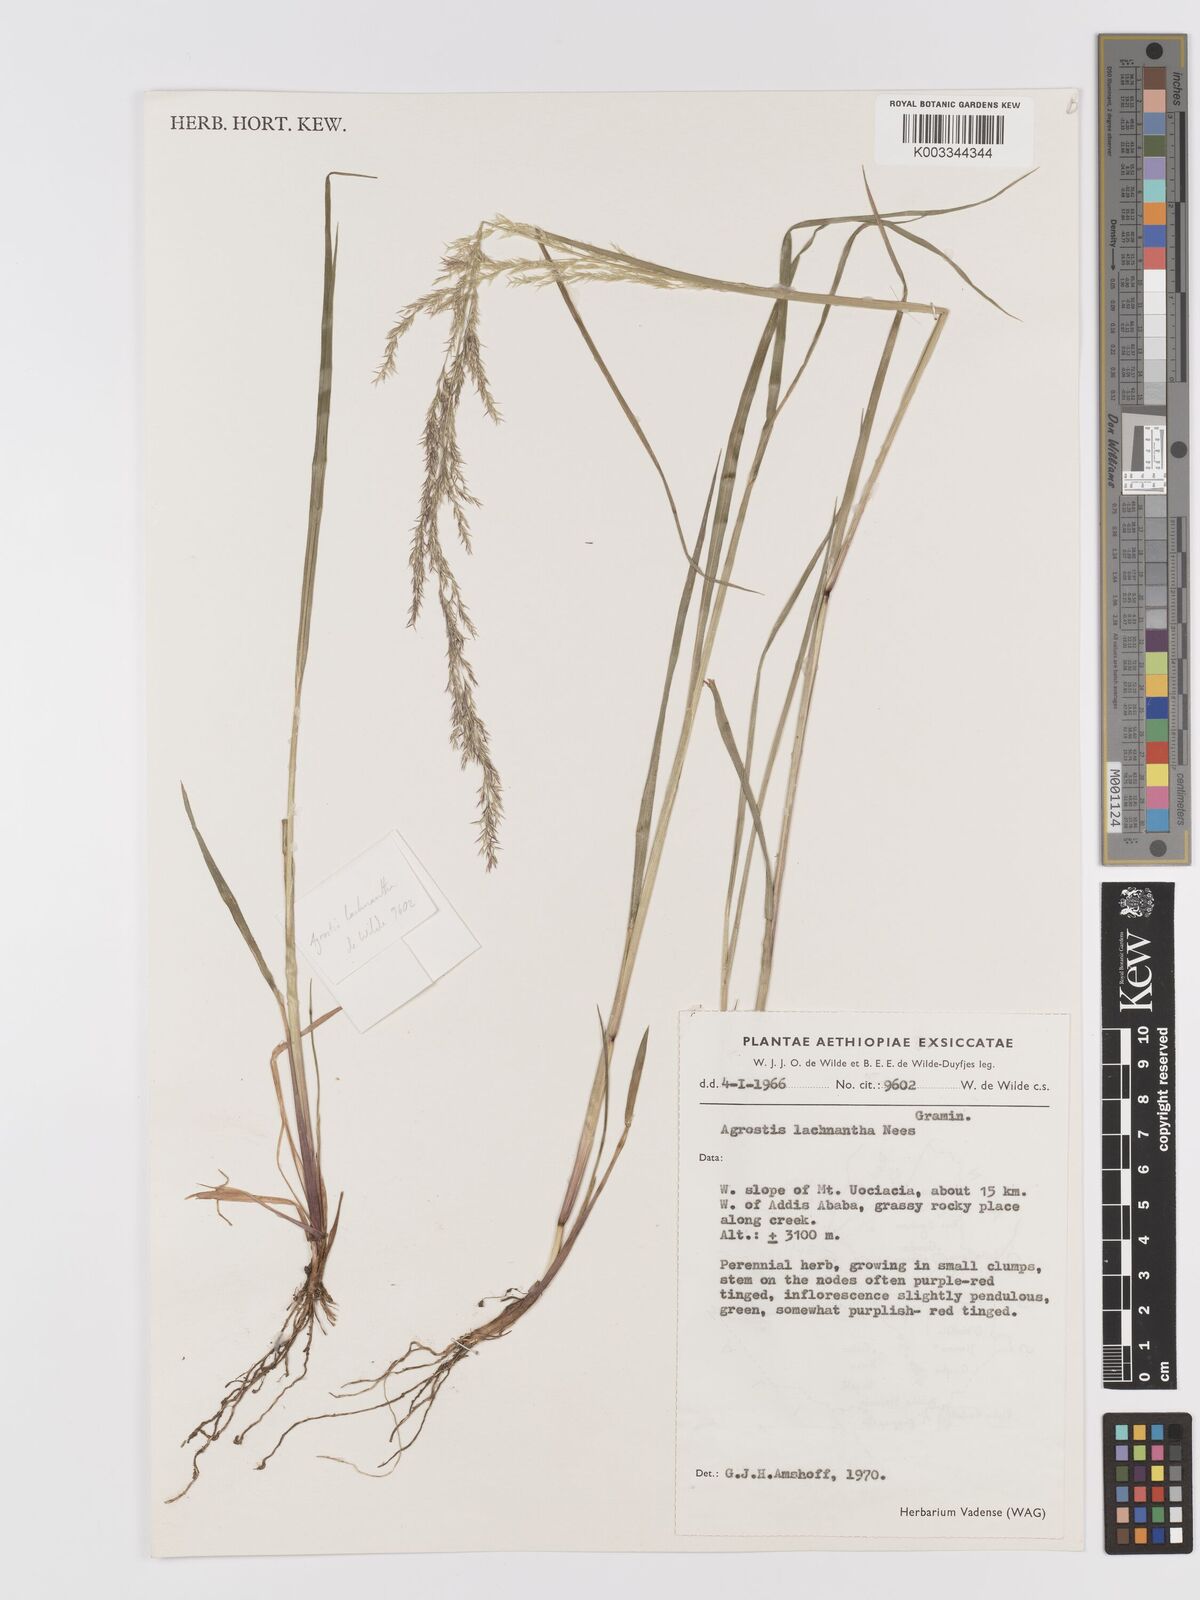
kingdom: Plantae
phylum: Tracheophyta
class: Liliopsida
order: Poales
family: Poaceae
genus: Lachnagrostis
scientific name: Lachnagrostis lachnantha
